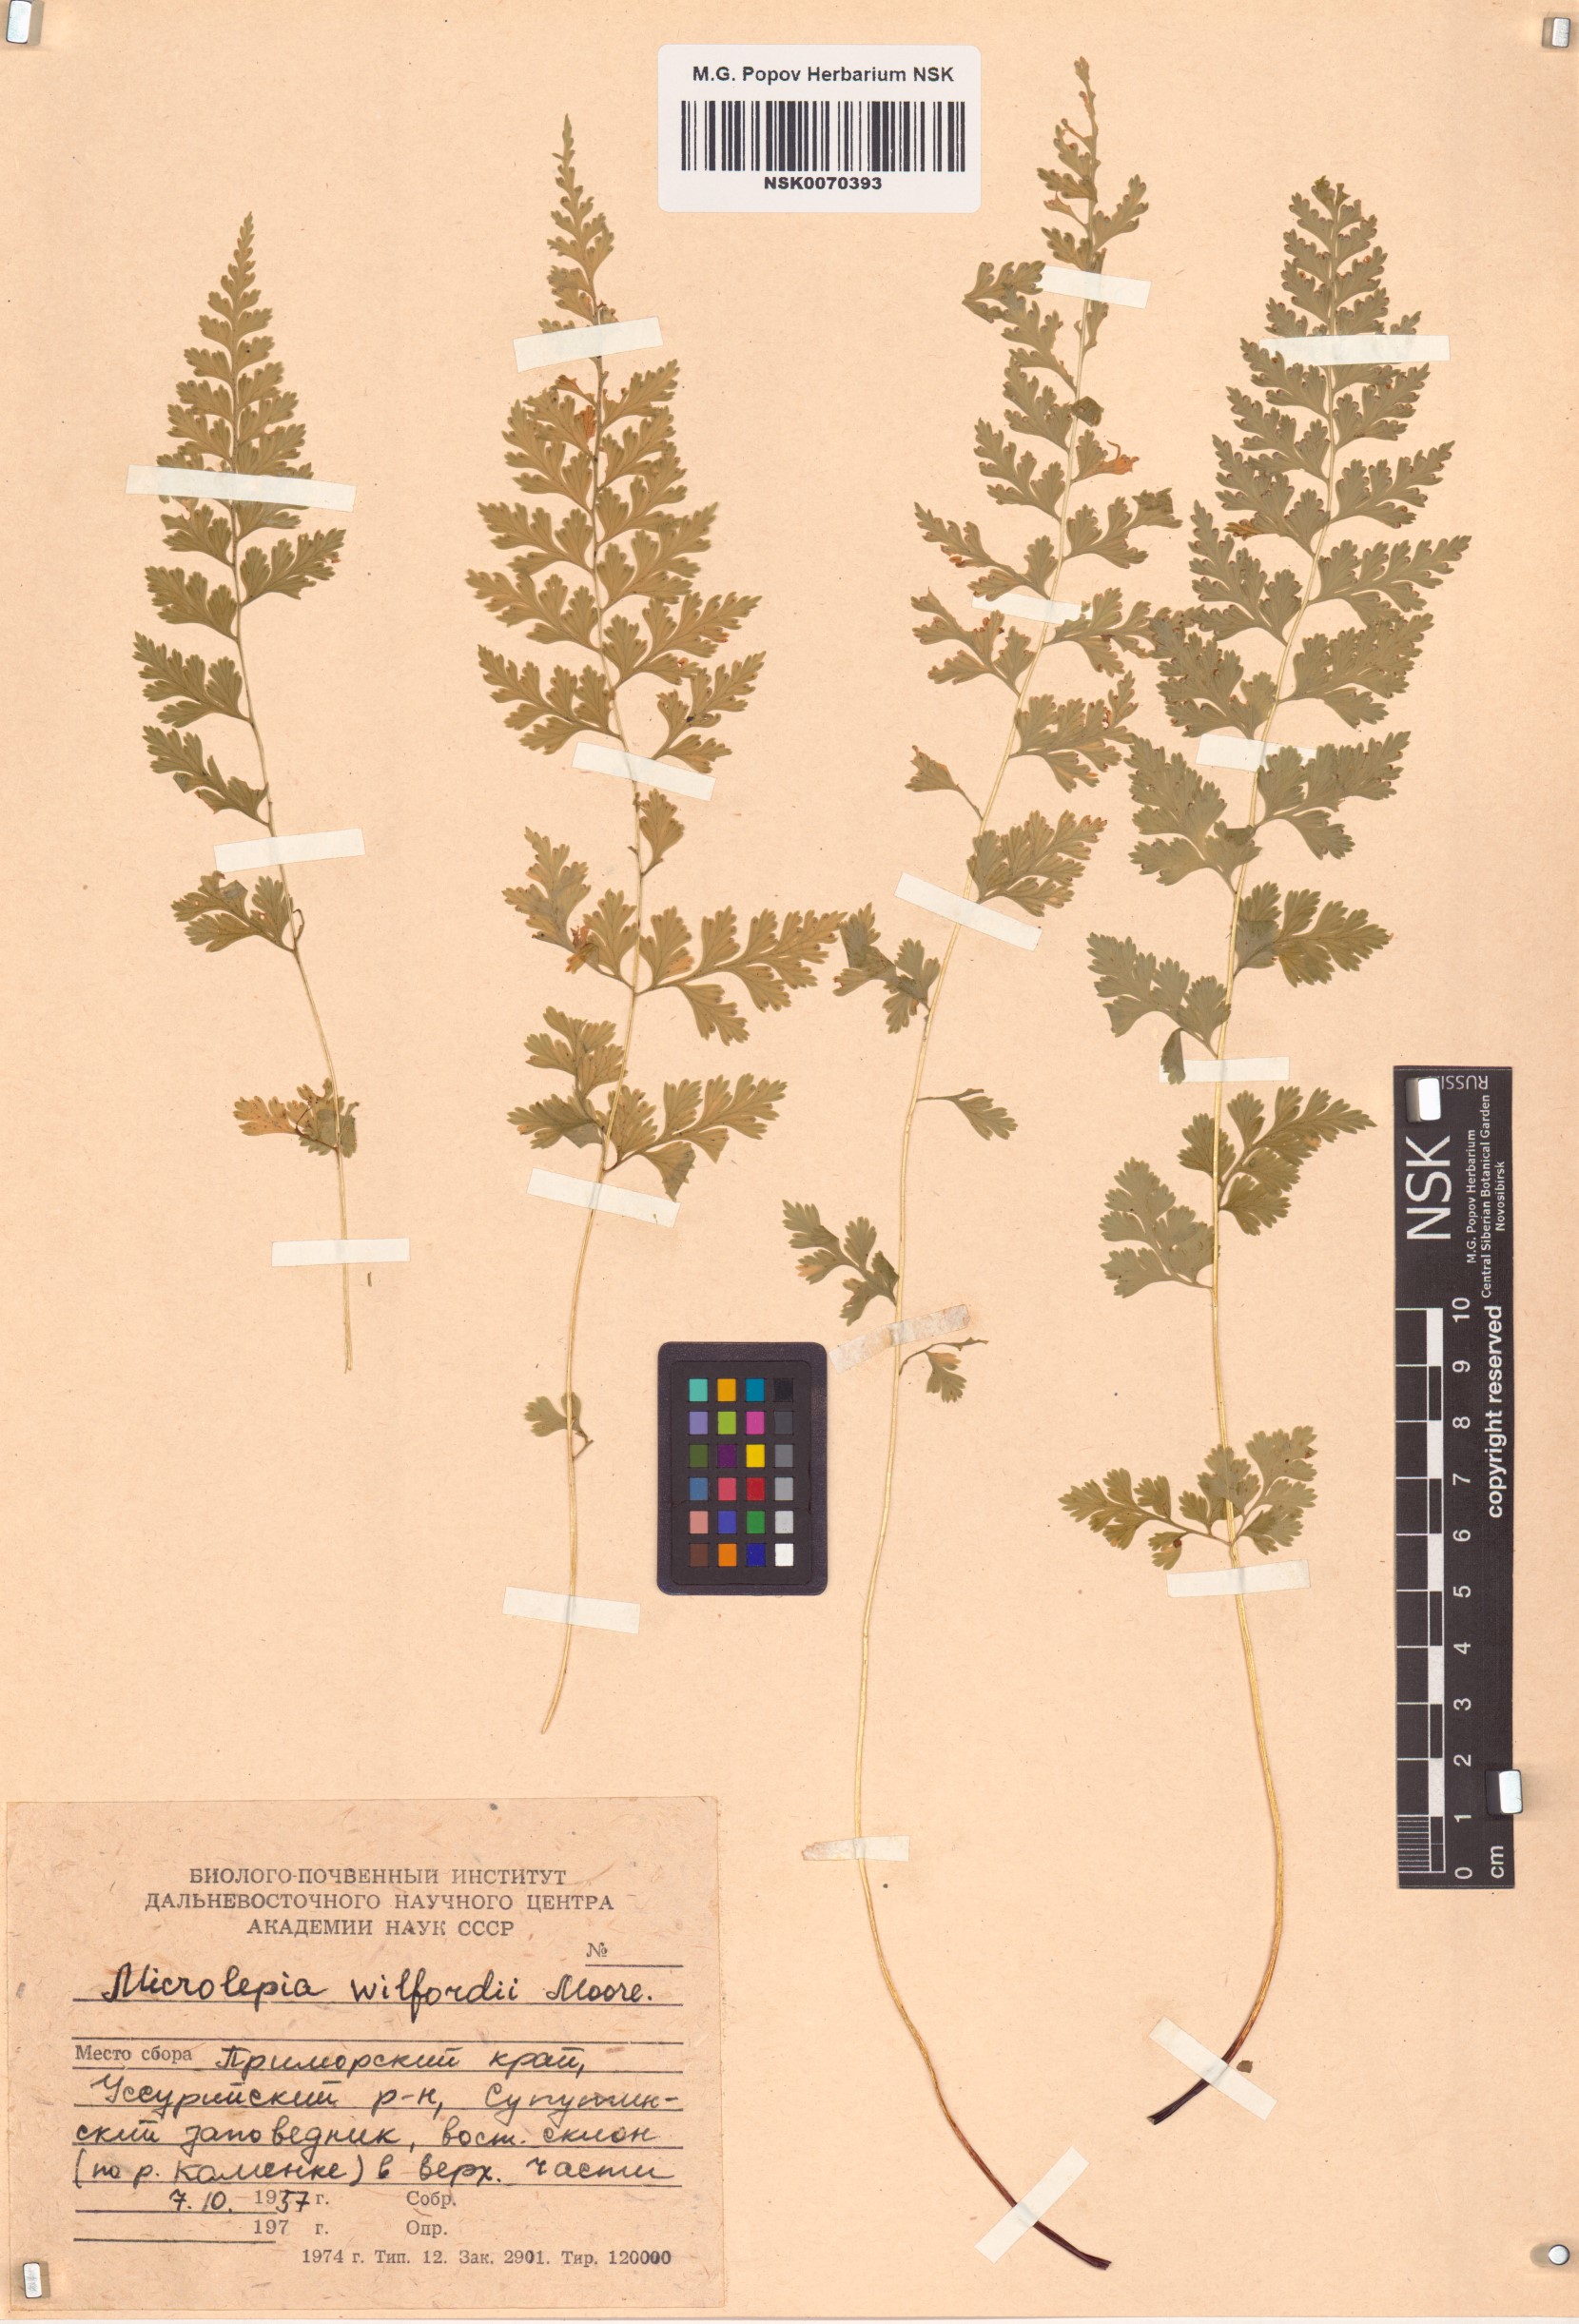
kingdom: Plantae
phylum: Tracheophyta
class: Polypodiopsida
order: Polypodiales
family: Dennstaedtiaceae
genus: Sitobolium
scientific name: Sitobolium wilfordii
